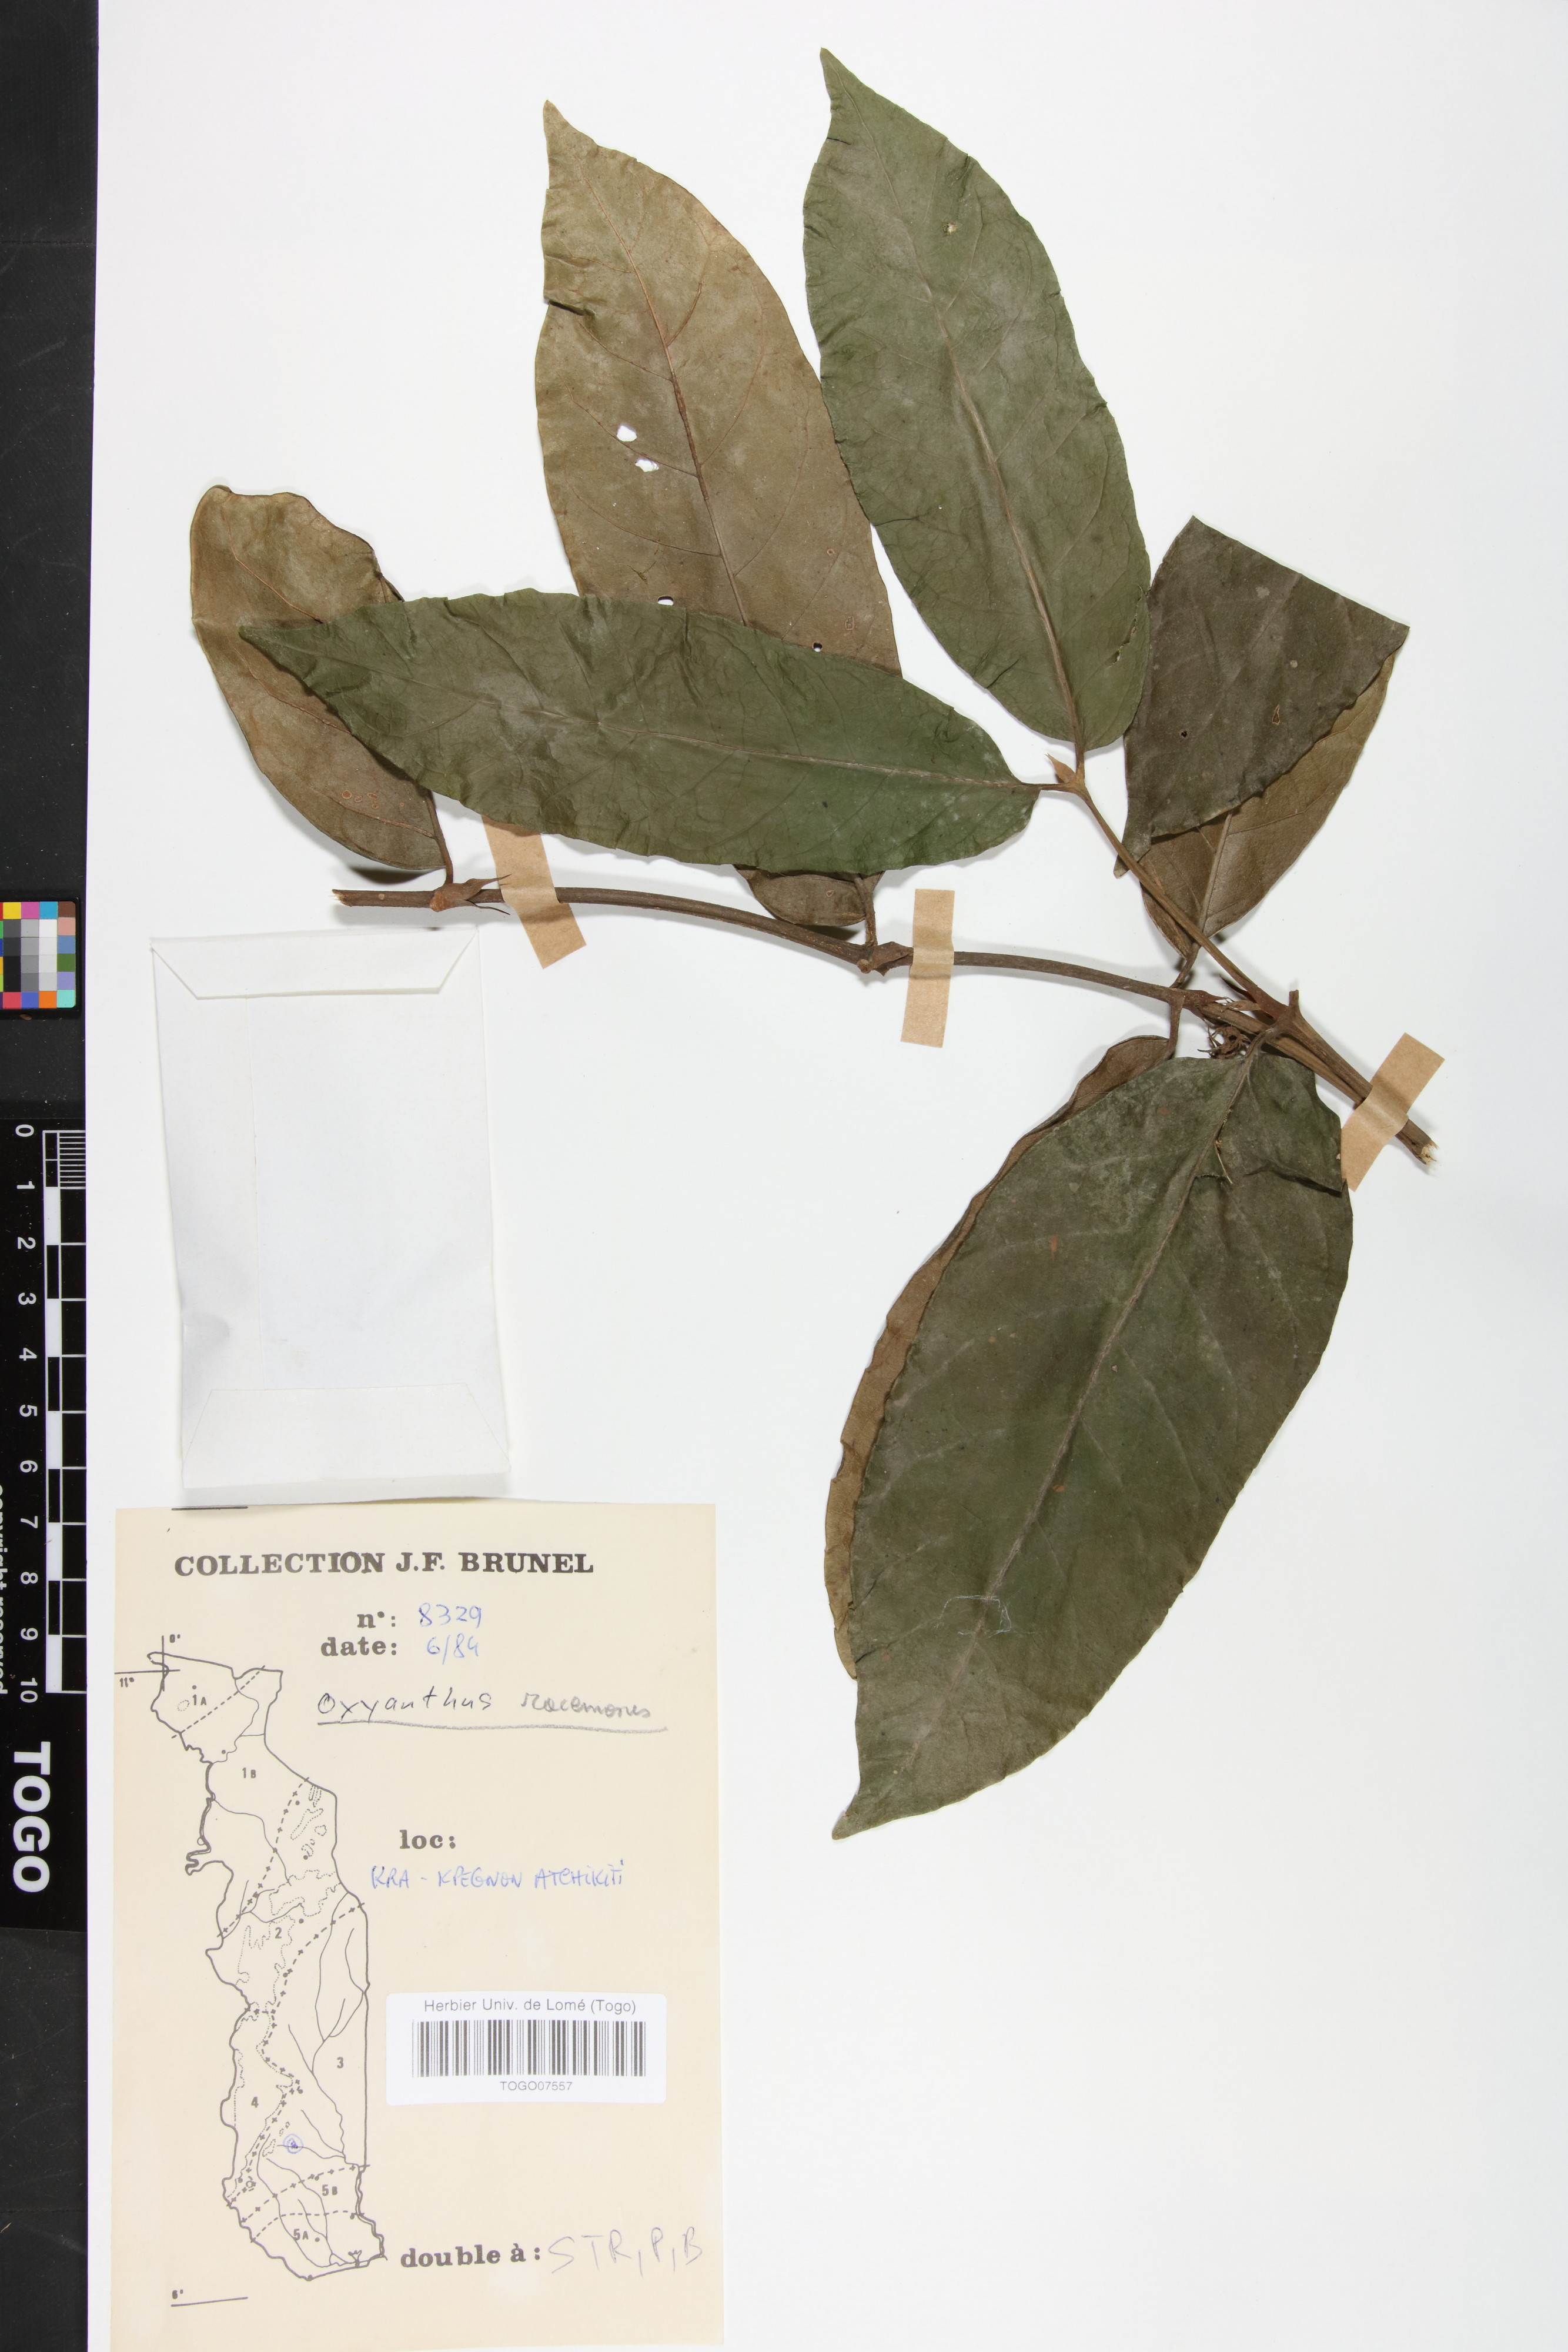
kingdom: Plantae
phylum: Tracheophyta
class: Magnoliopsida
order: Gentianales
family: Rubiaceae
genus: Oxyanthus
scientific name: Oxyanthus racemosus
